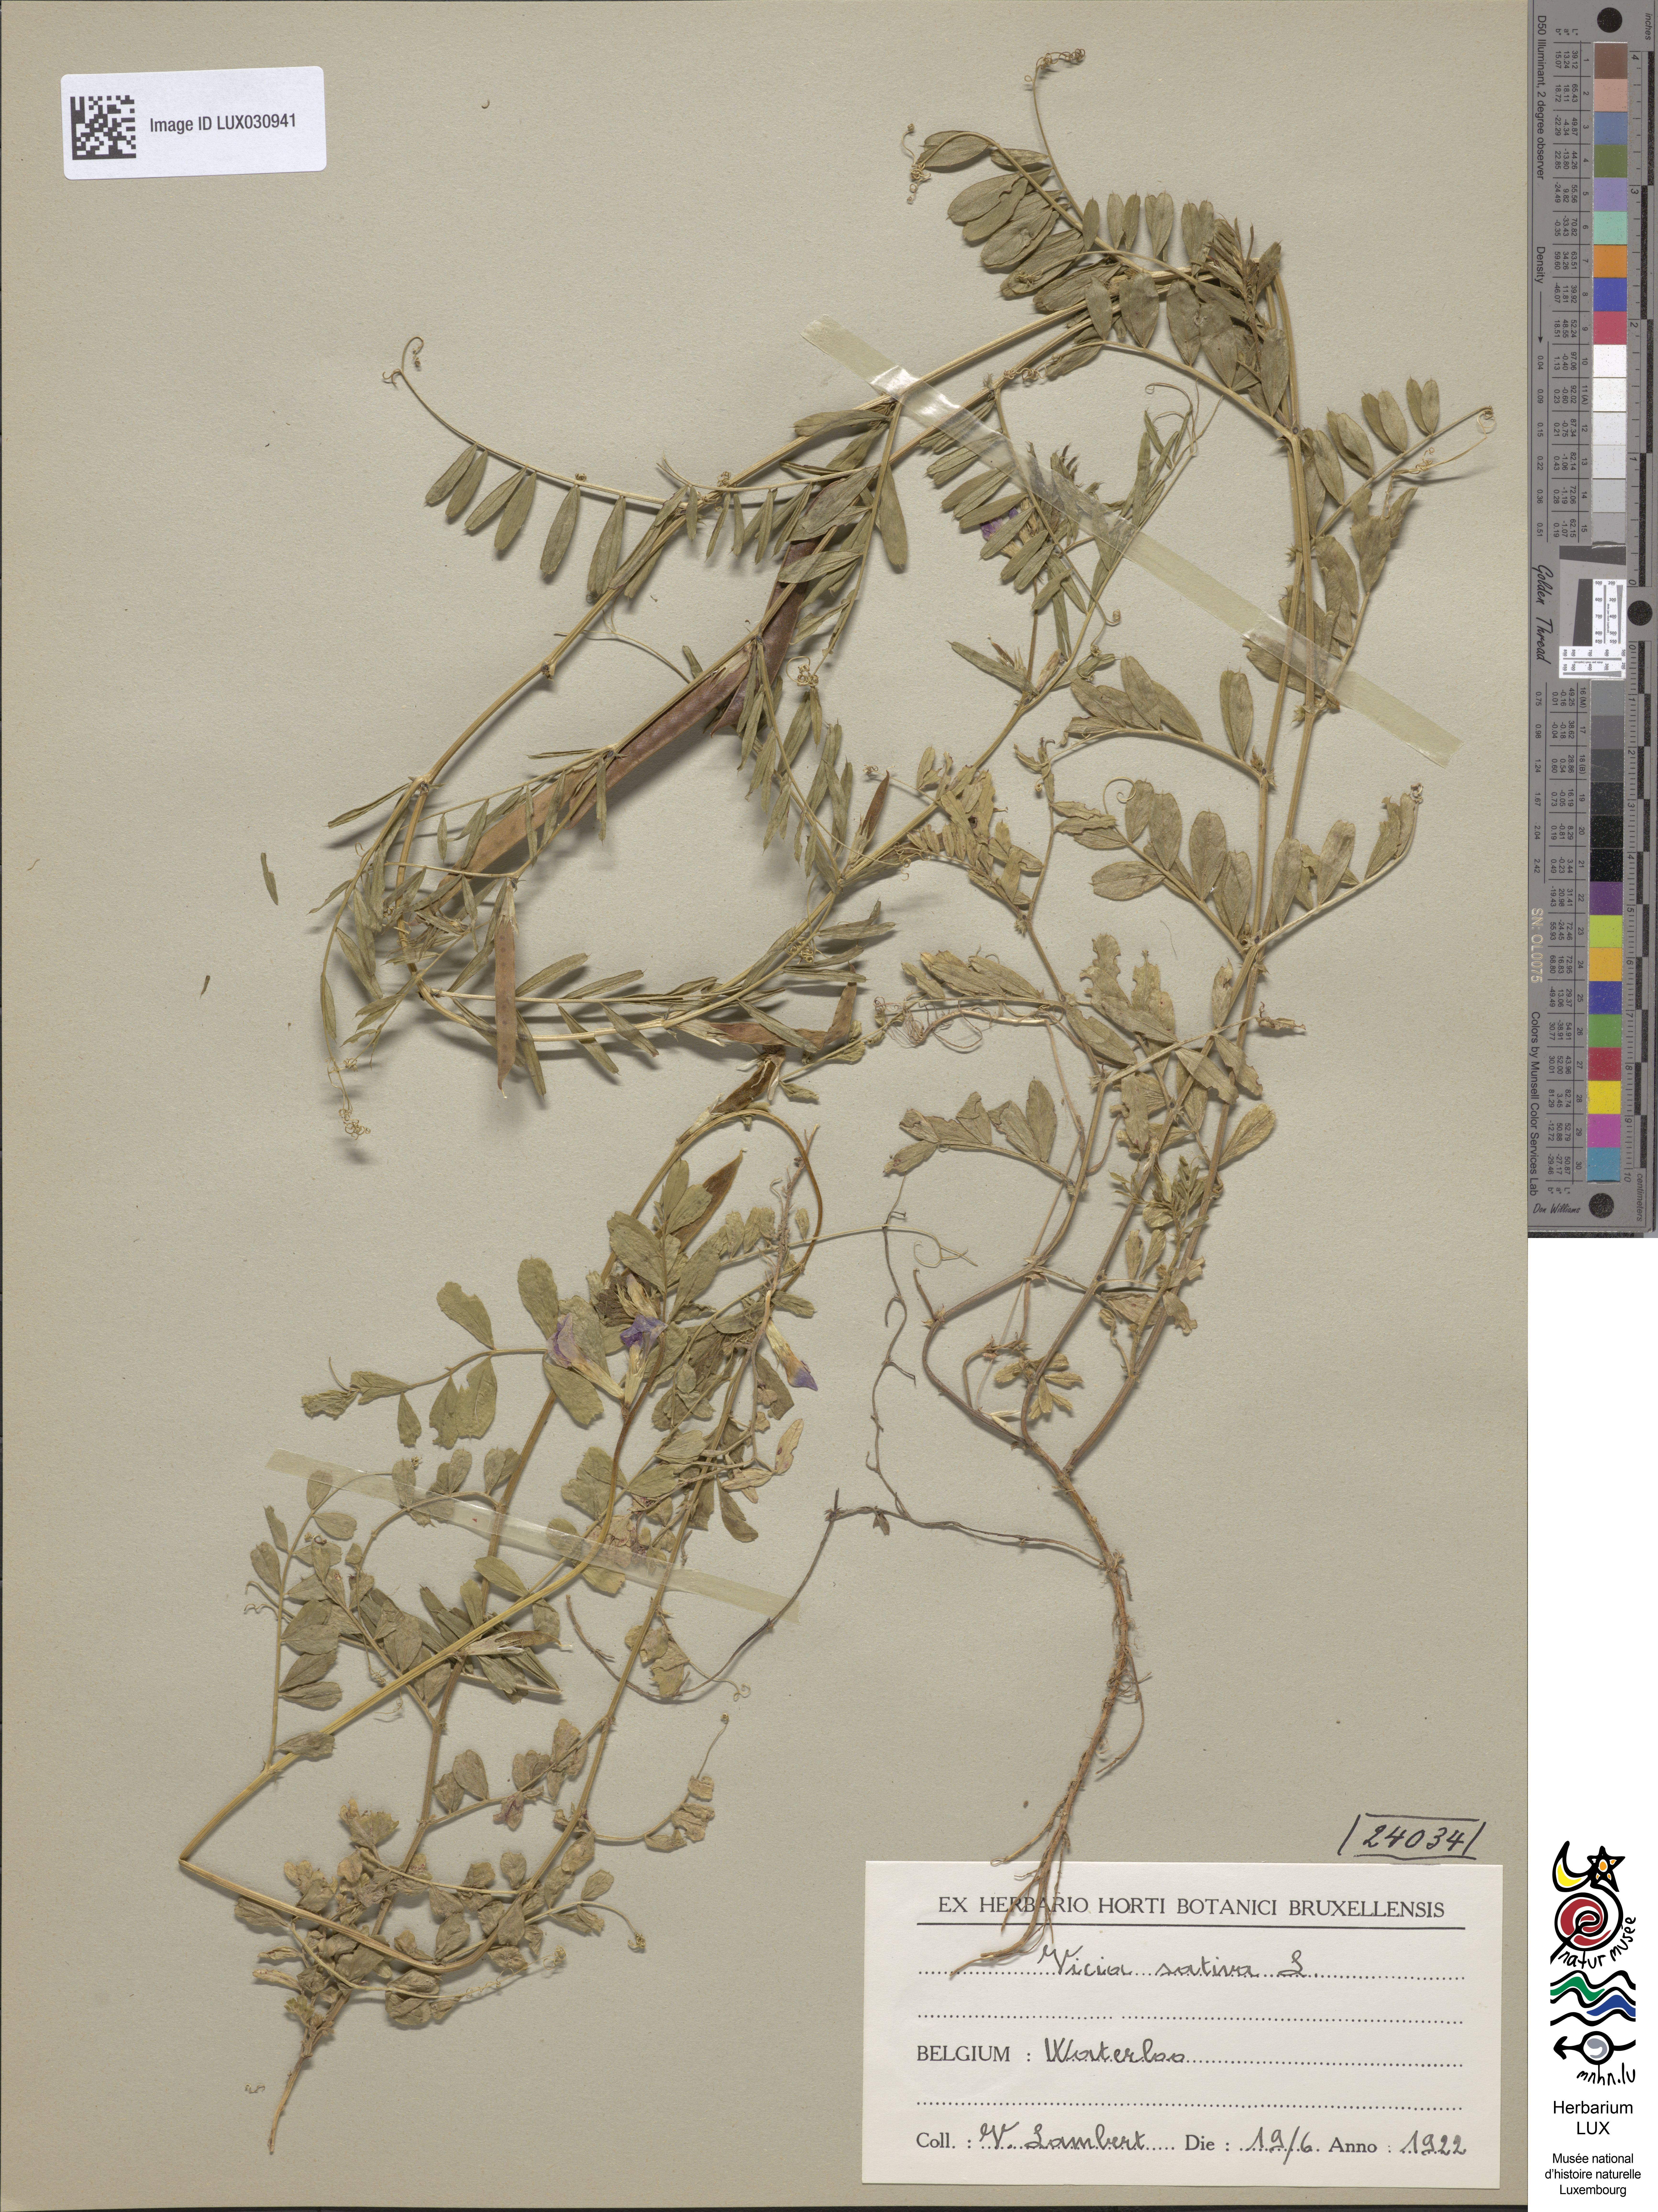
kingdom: Plantae
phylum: Tracheophyta
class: Magnoliopsida
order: Fabales
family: Fabaceae
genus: Vicia
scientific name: Vicia sativa
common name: Garden vetch
